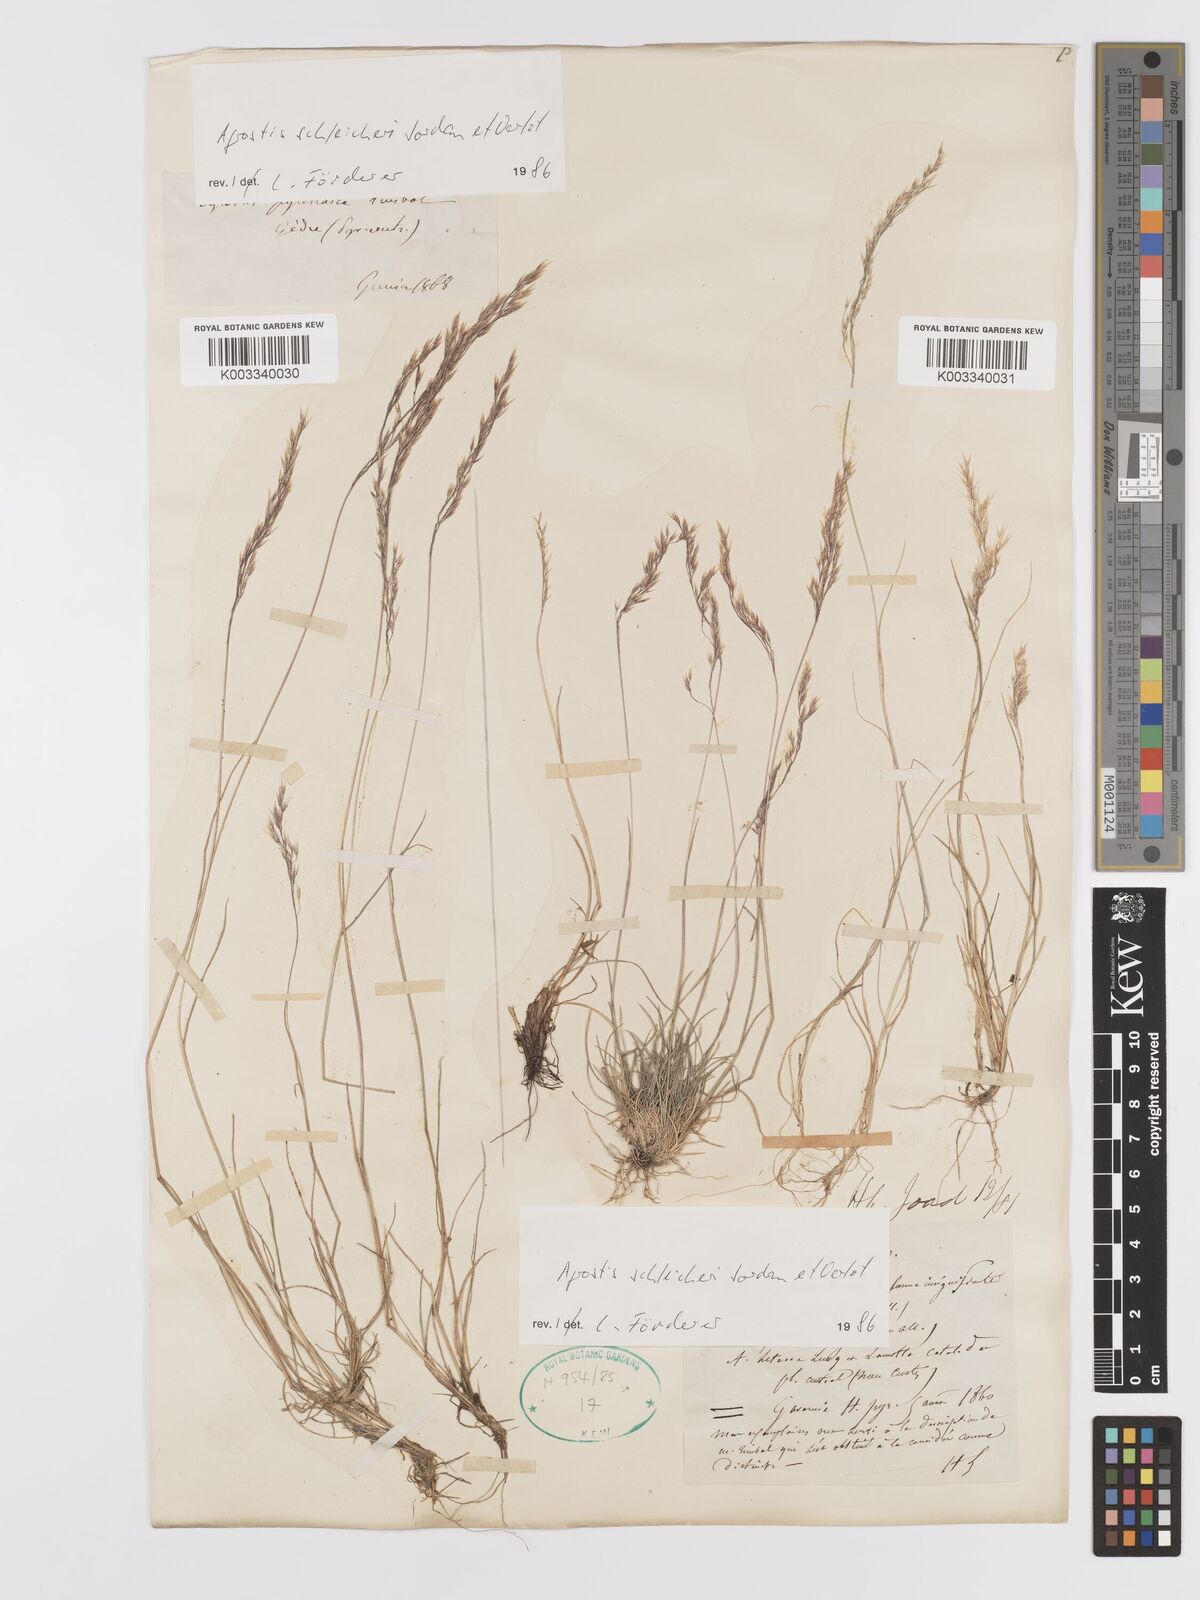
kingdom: Plantae
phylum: Tracheophyta
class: Liliopsida
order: Poales
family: Poaceae
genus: Alpagrostis
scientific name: Alpagrostis schleicheri
